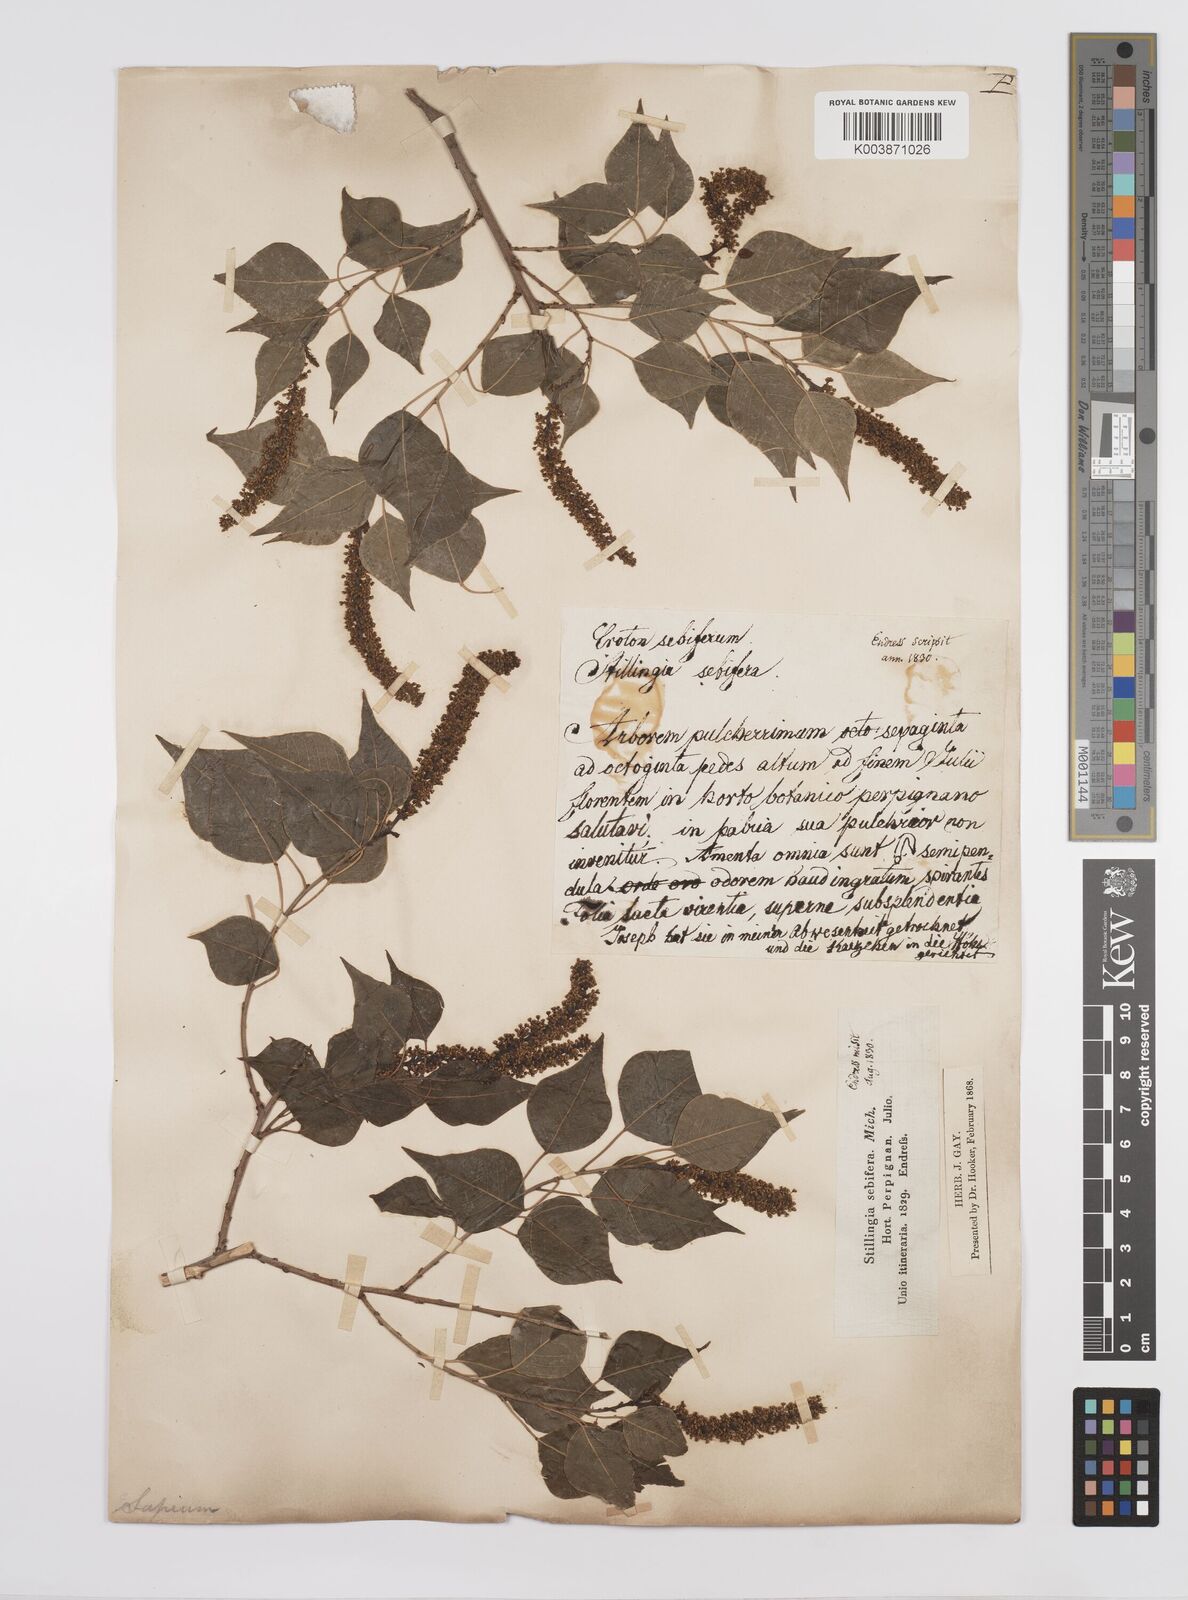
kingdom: Plantae
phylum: Tracheophyta
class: Magnoliopsida
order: Malpighiales
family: Euphorbiaceae
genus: Triadica
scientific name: Triadica sebifera
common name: Chinese tallow
